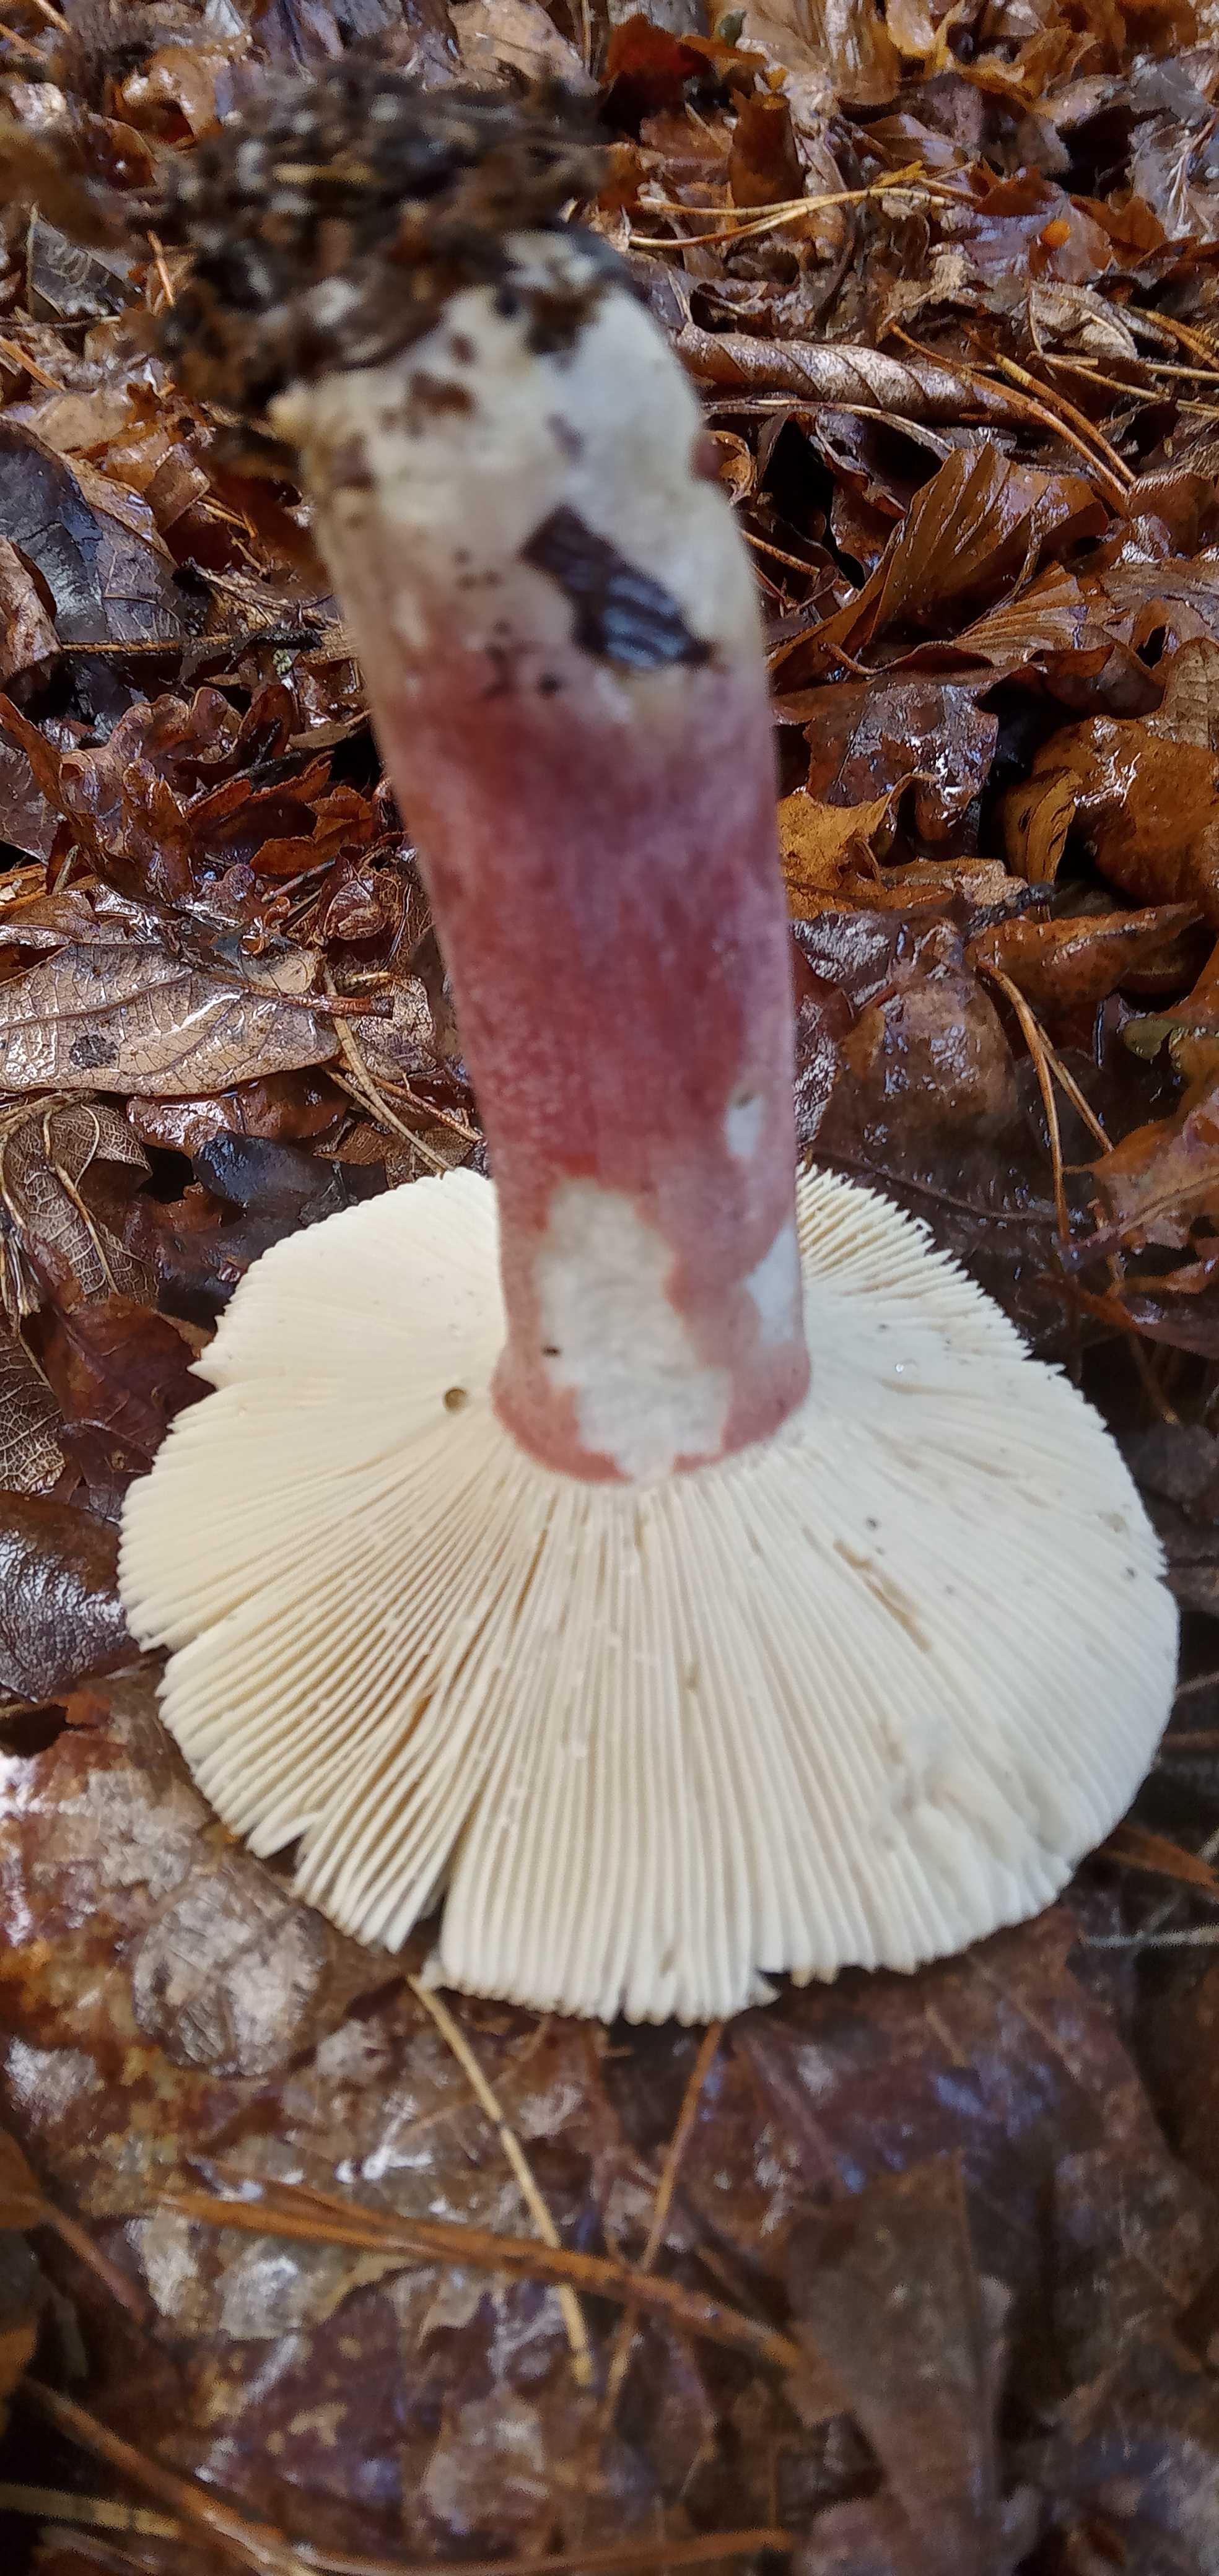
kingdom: Fungi
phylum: Basidiomycota
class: Agaricomycetes
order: Russulales
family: Russulaceae
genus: Russula
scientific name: Russula
